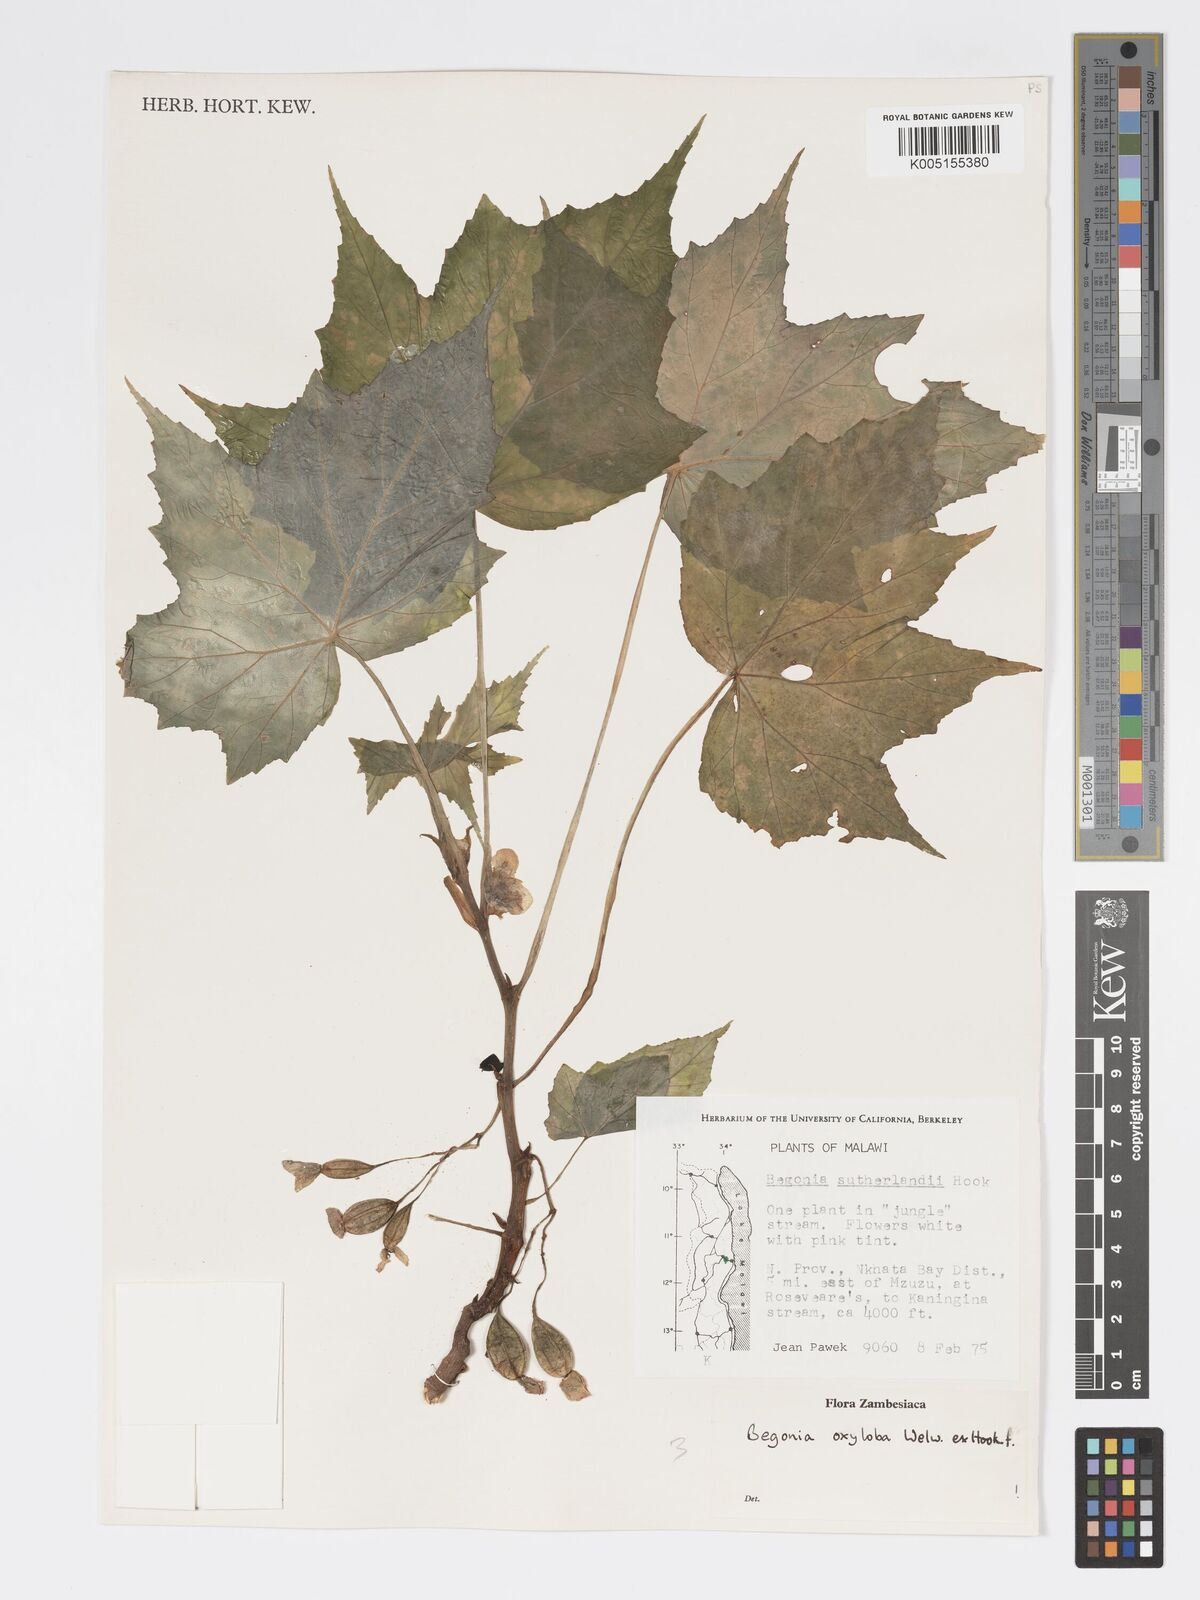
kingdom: Plantae
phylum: Tracheophyta
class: Magnoliopsida
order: Cucurbitales
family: Begoniaceae
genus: Begonia
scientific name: Begonia oxyloba
